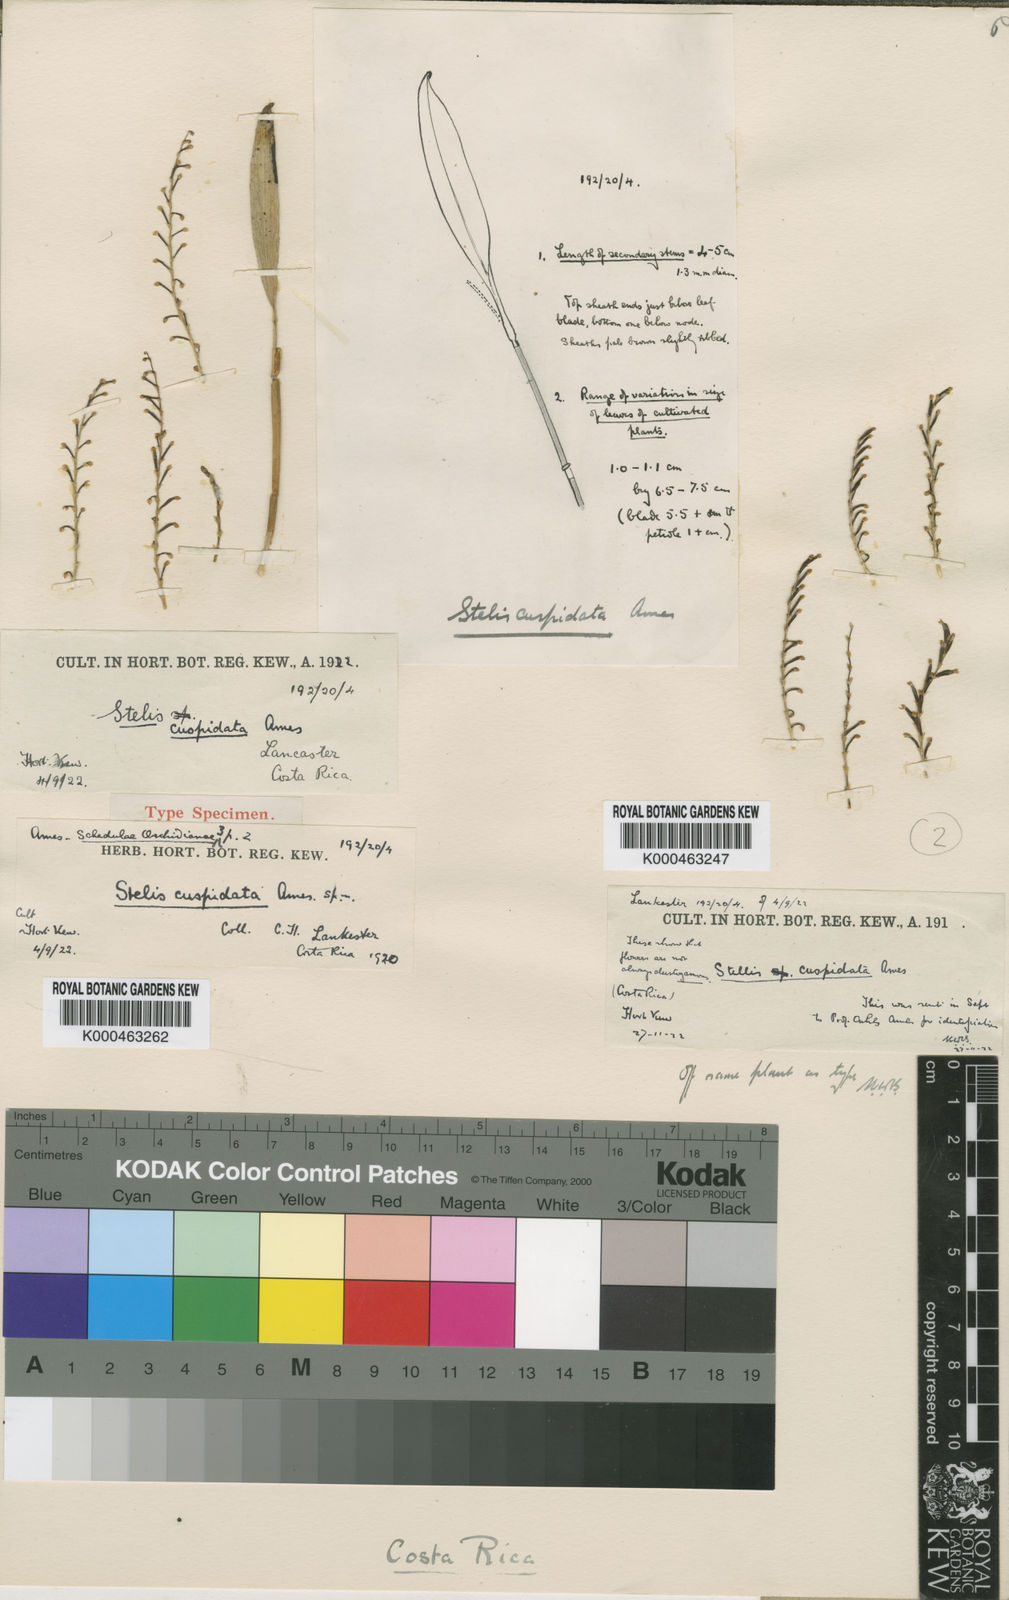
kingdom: Plantae
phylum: Tracheophyta
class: Liliopsida
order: Asparagales
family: Orchidaceae
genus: Stelis
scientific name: Stelis cuspidata
